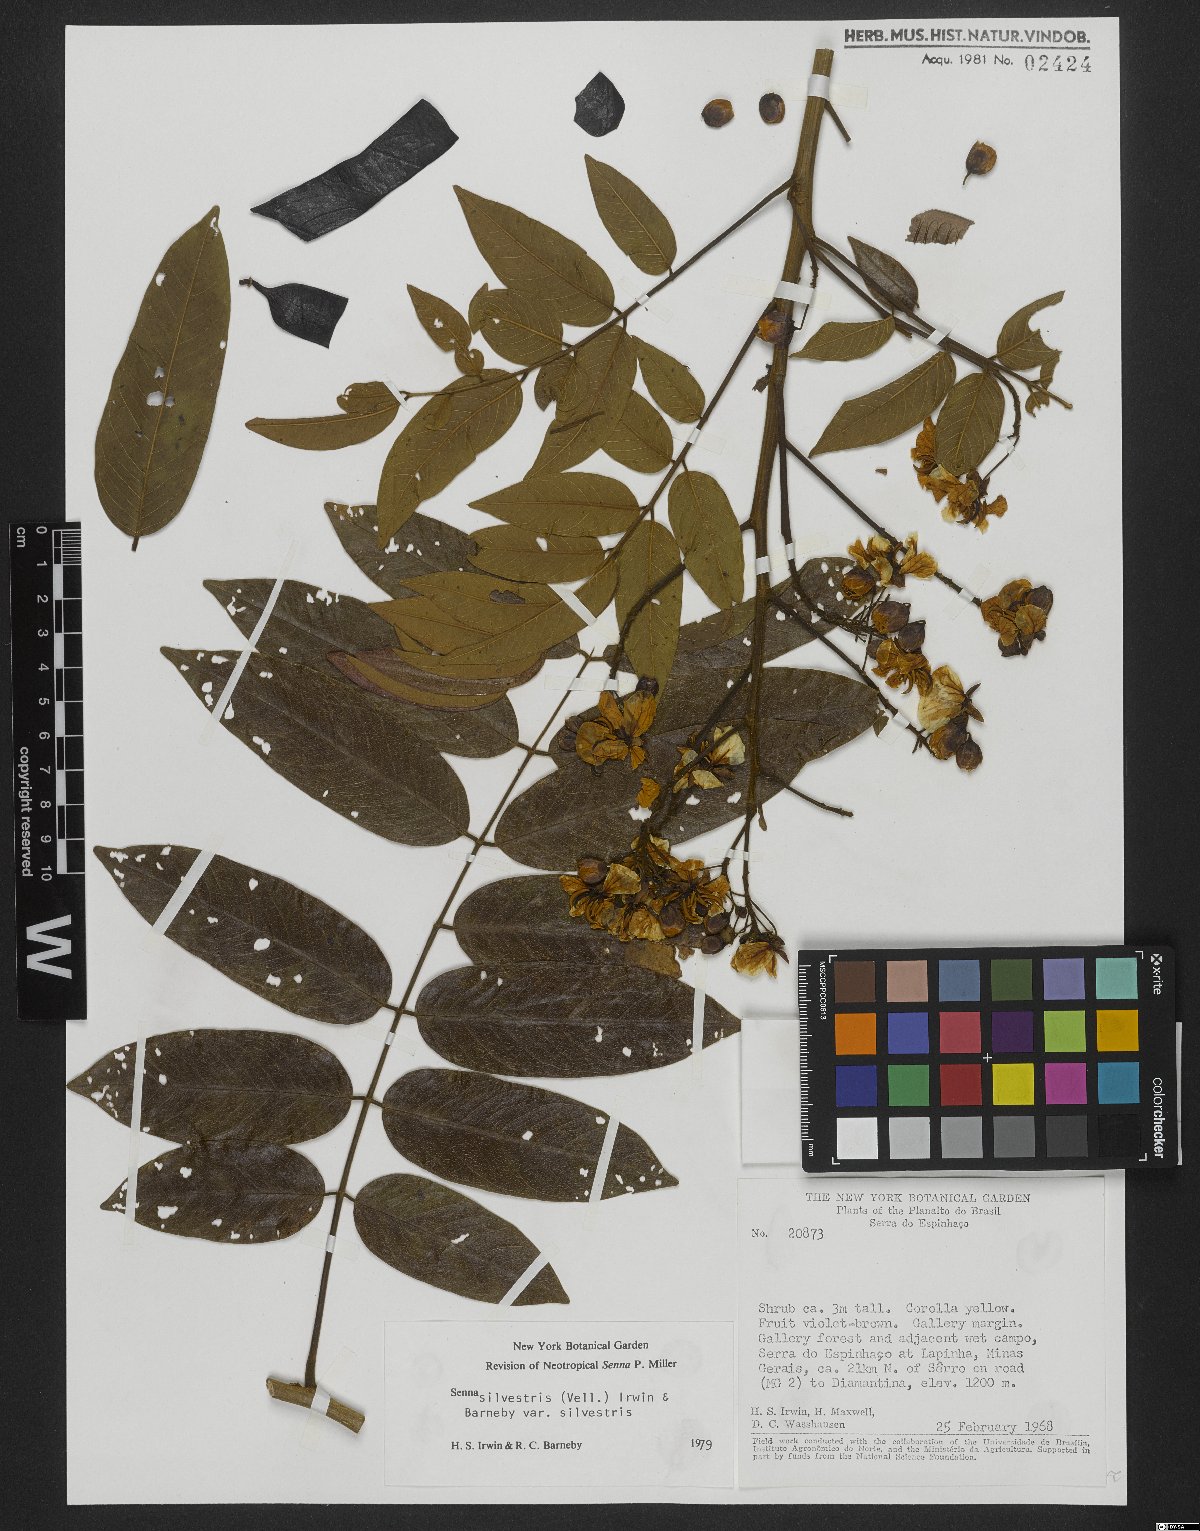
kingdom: Plantae
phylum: Tracheophyta
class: Magnoliopsida
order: Fabales
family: Fabaceae
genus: Senna
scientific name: Senna silvestris
